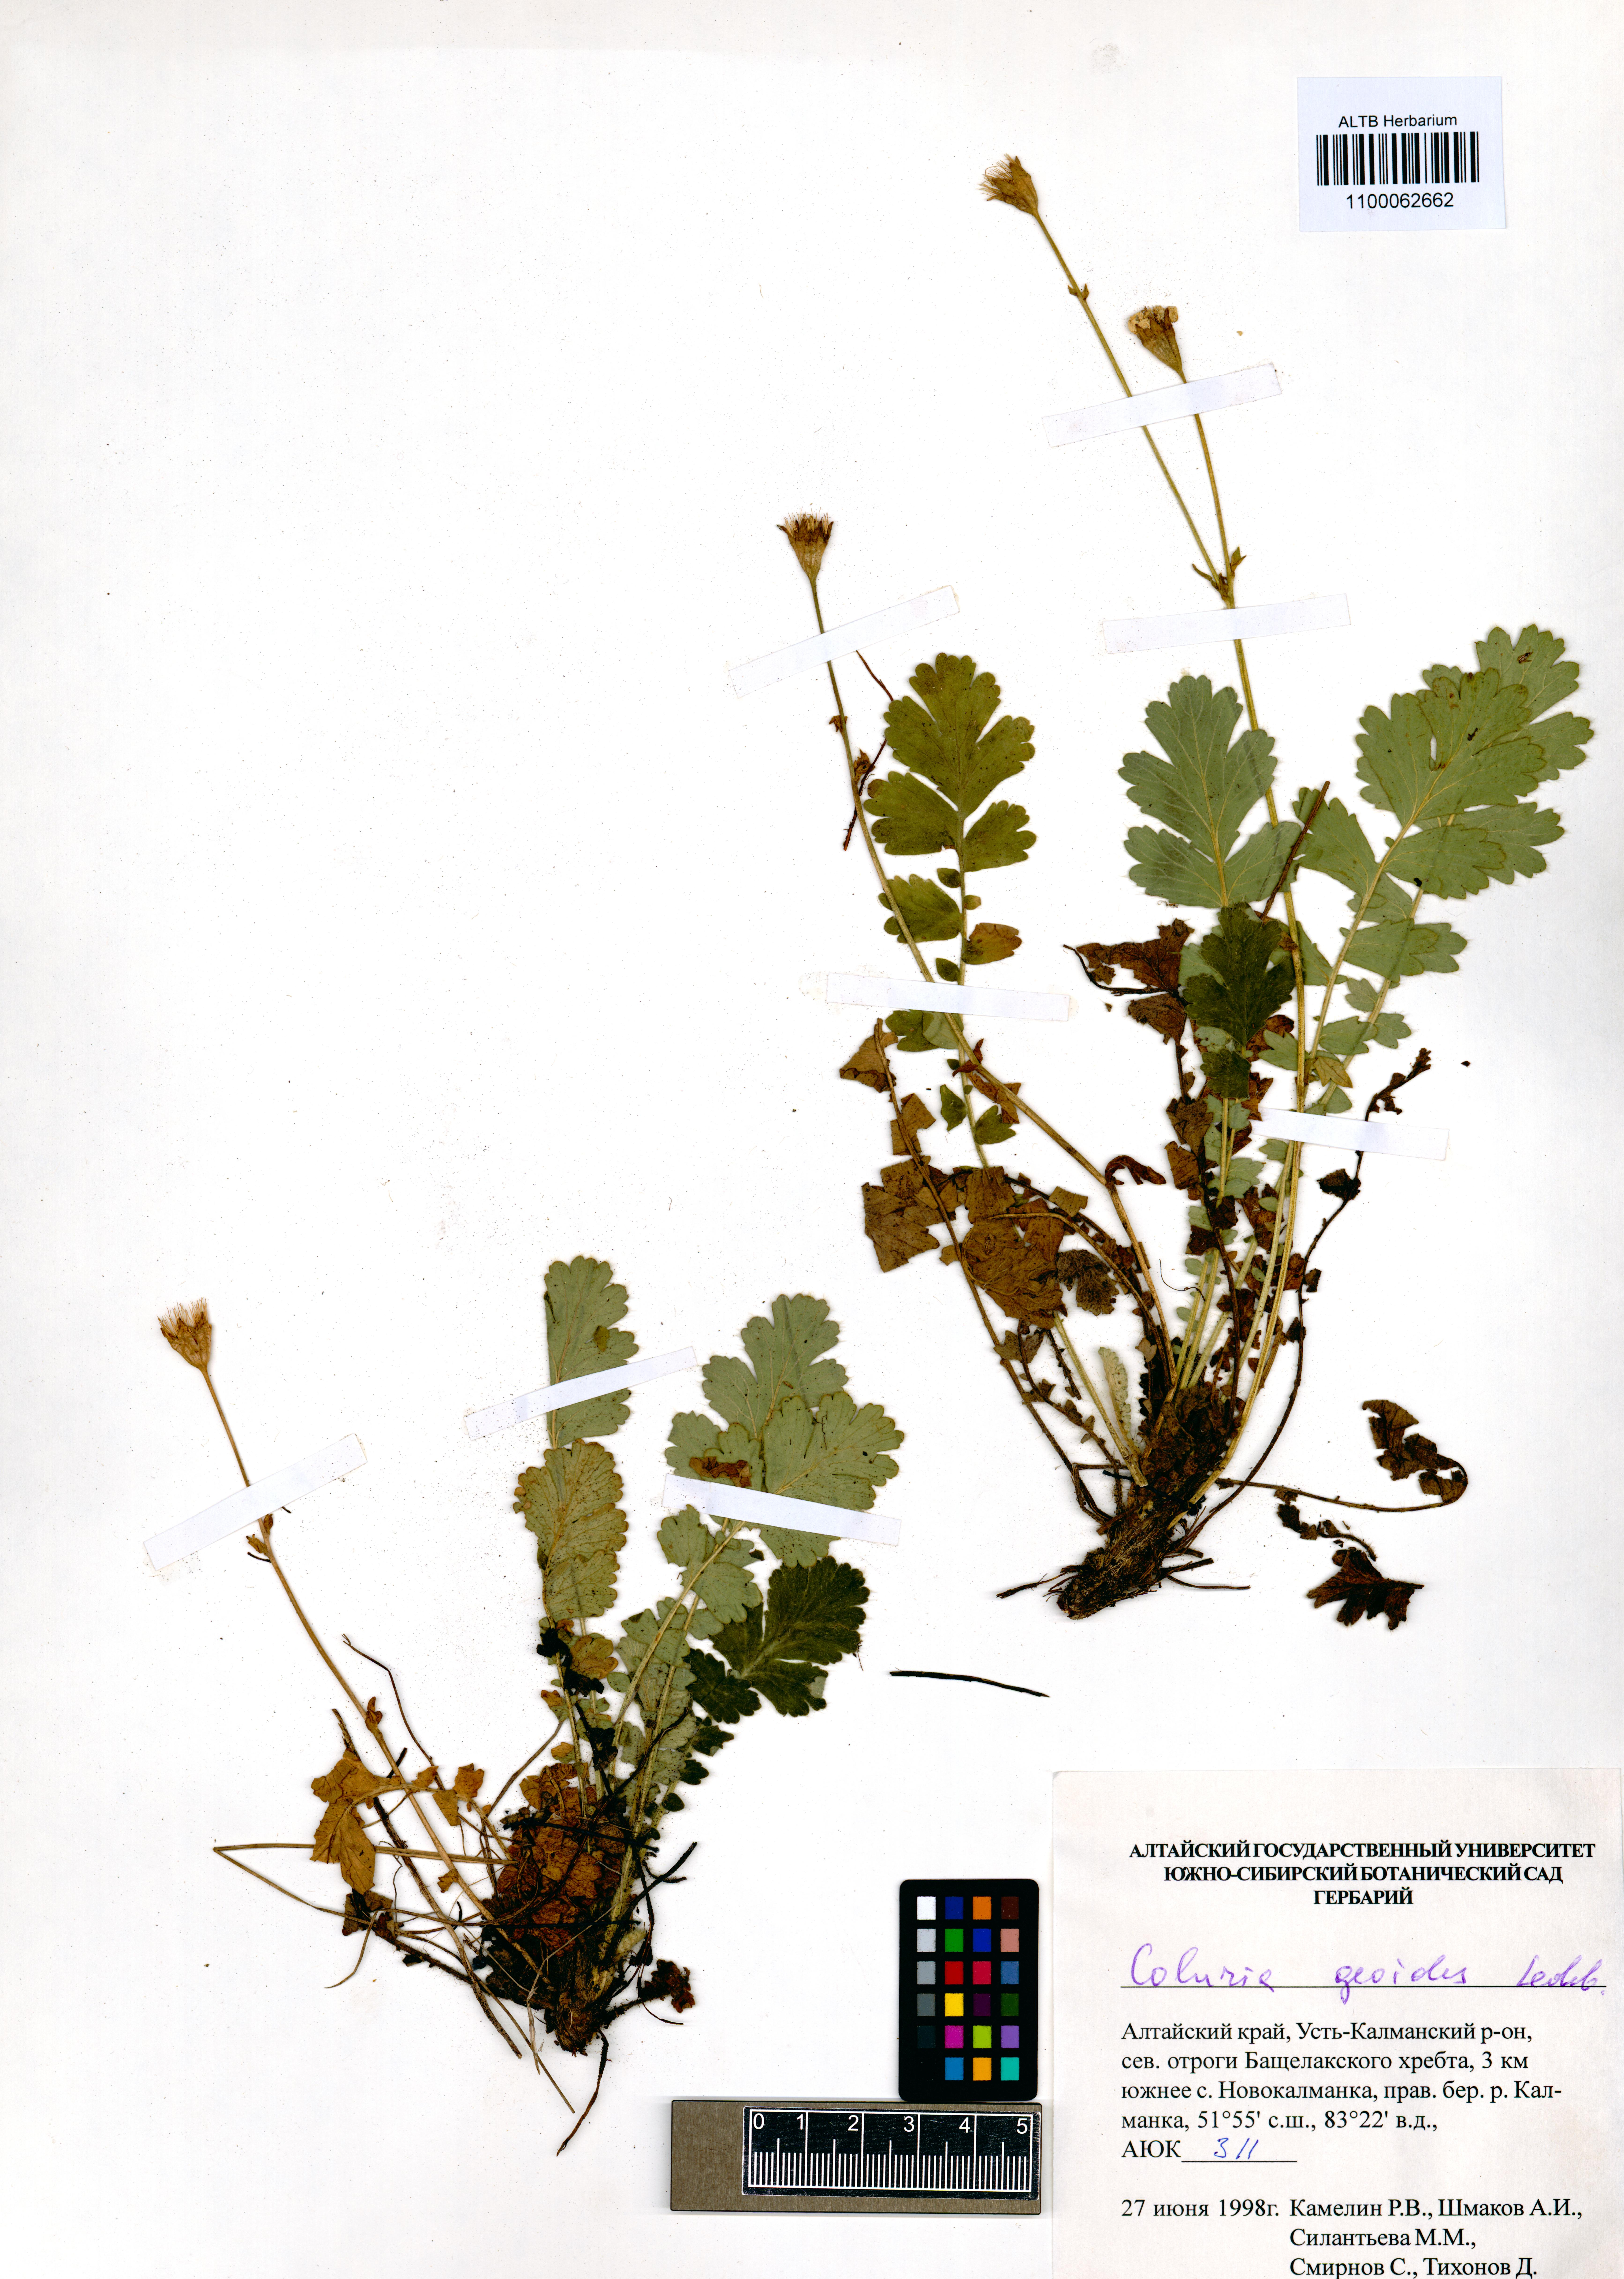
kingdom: Plantae
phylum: Tracheophyta
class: Magnoliopsida
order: Rosales
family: Rosaceae
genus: Geum
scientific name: Geum geoides
